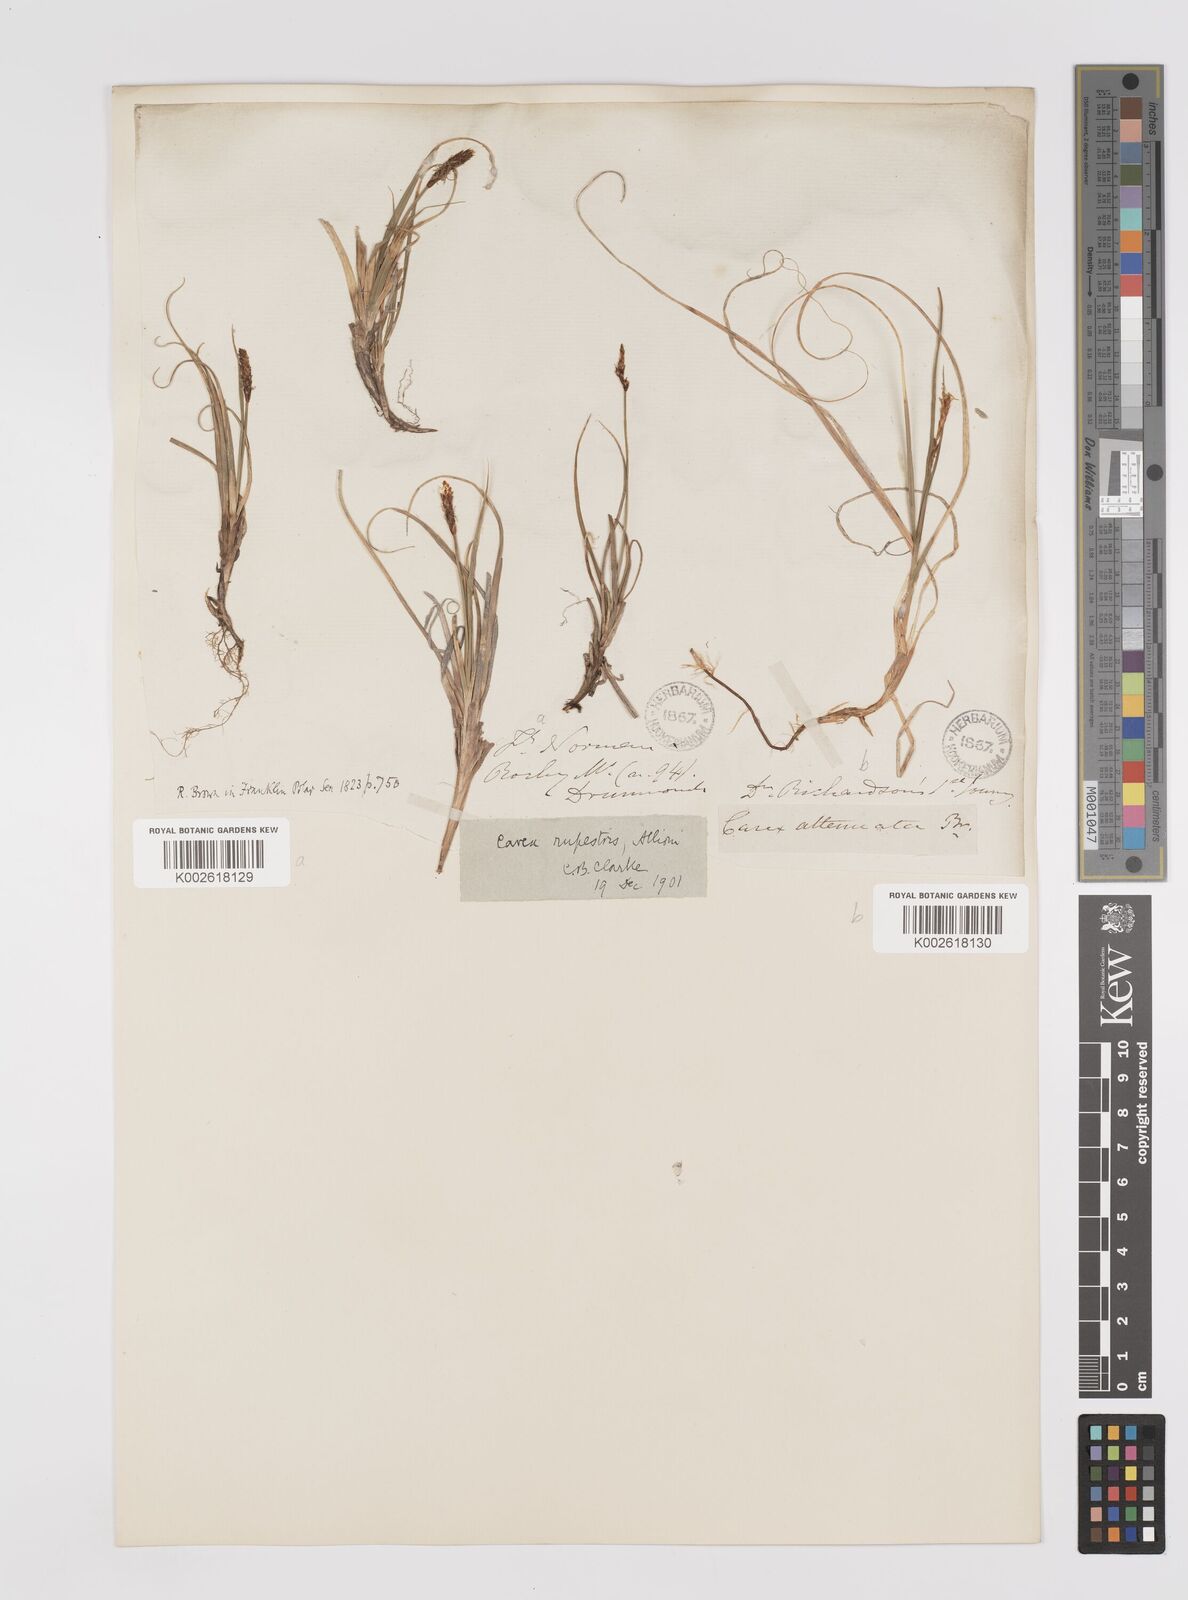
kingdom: Plantae
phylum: Tracheophyta
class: Liliopsida
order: Poales
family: Cyperaceae
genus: Carex
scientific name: Carex rupestris
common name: Rock sedge
